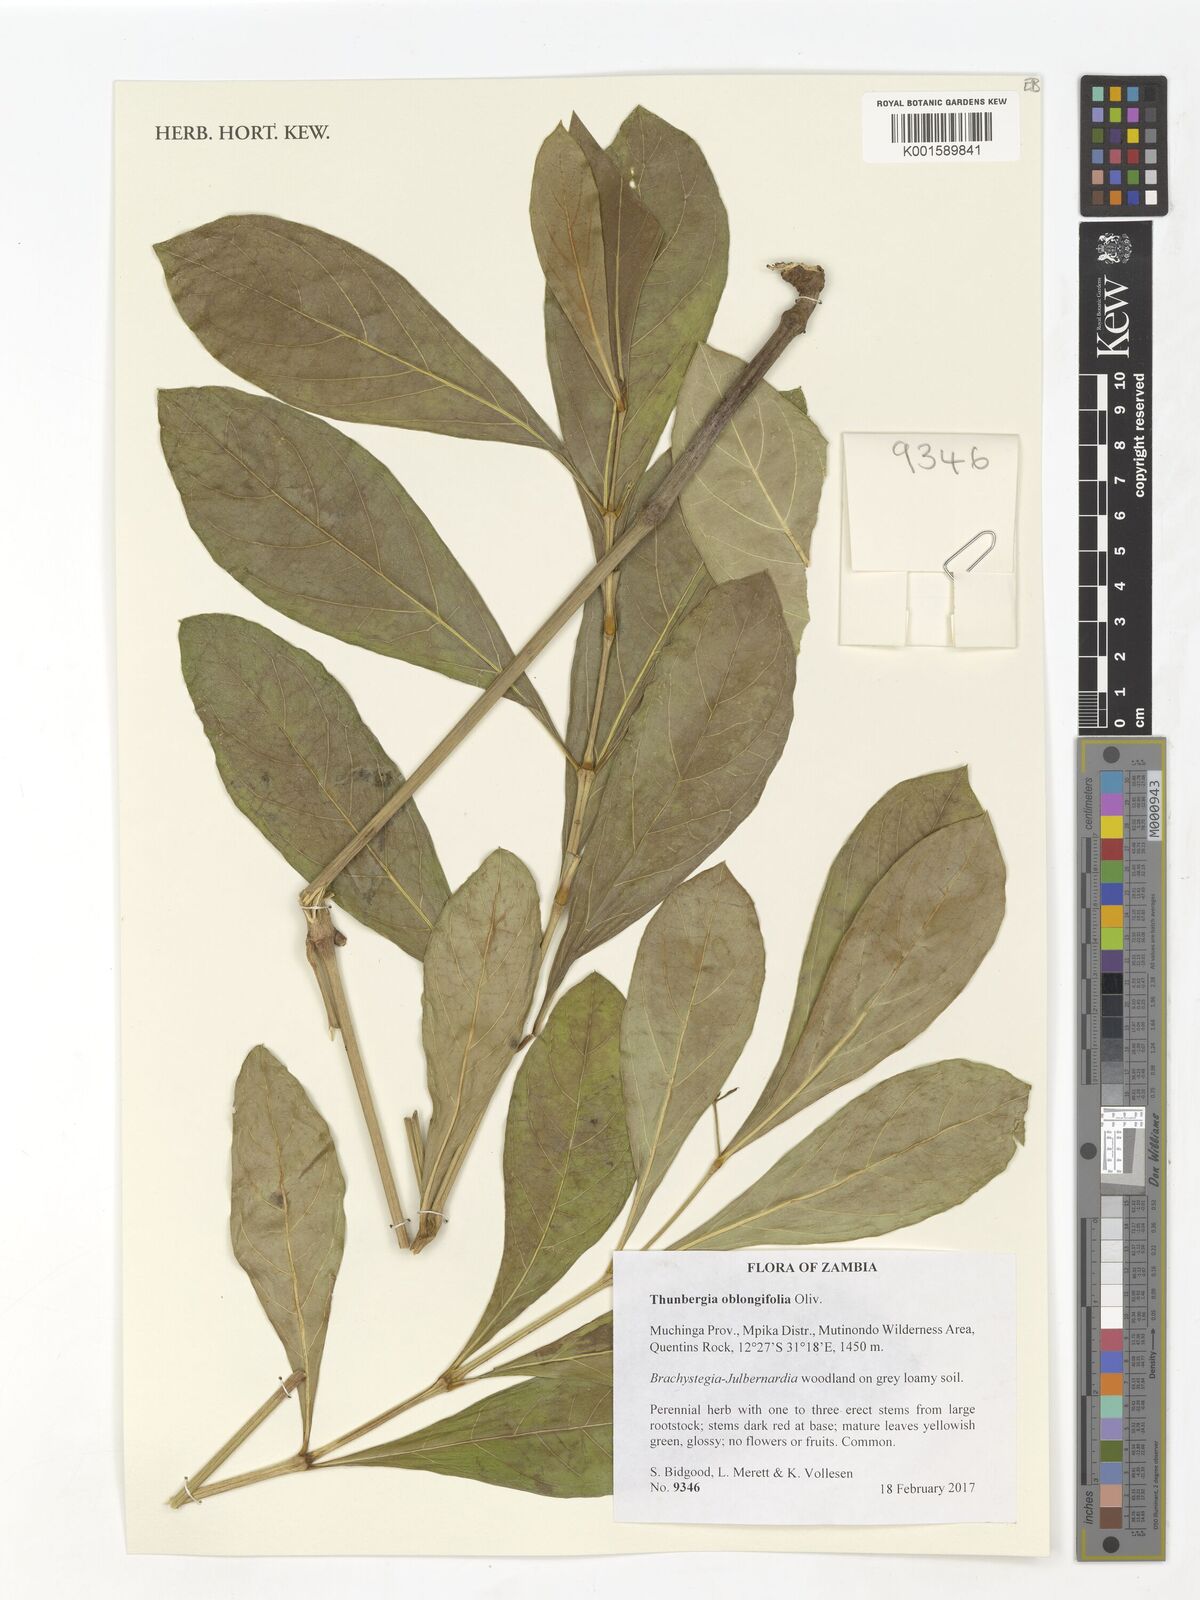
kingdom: Plantae
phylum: Tracheophyta
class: Magnoliopsida
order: Lamiales
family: Acanthaceae
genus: Thunbergia
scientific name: Thunbergia oblongifolia
